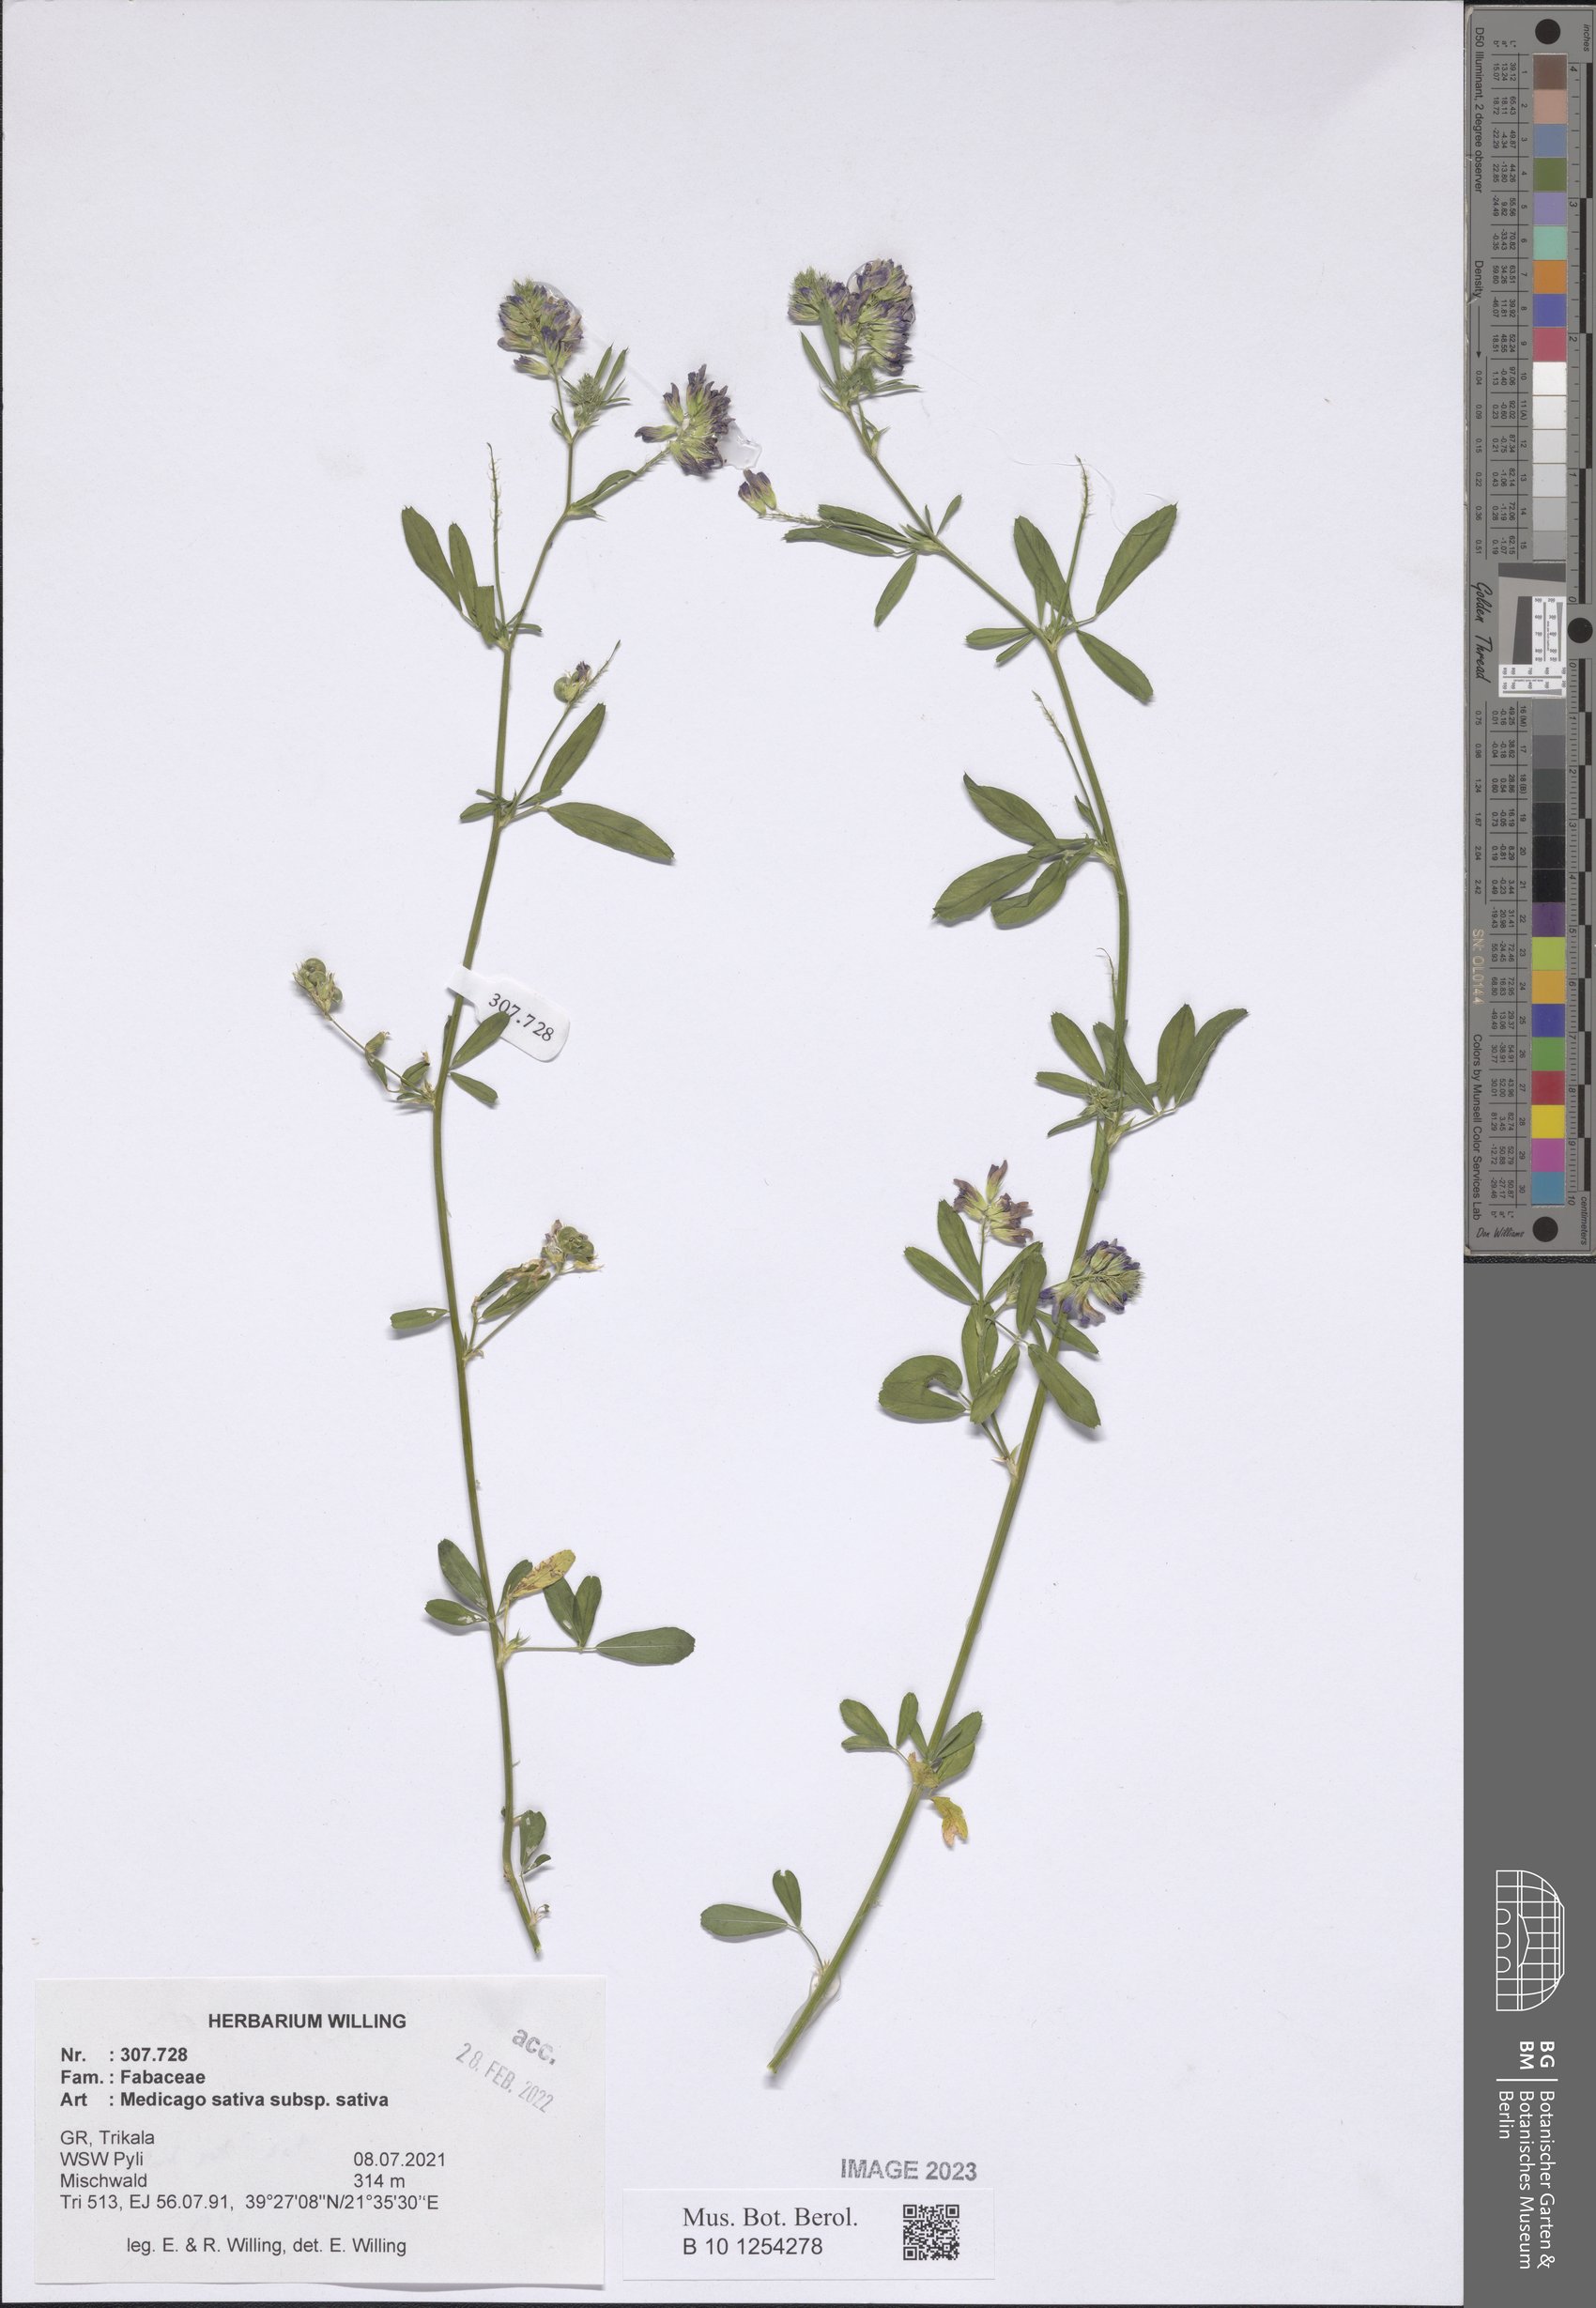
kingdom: Plantae
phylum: Tracheophyta
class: Magnoliopsida
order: Fabales
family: Fabaceae
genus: Medicago
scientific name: Medicago sativa
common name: Alfalfa
